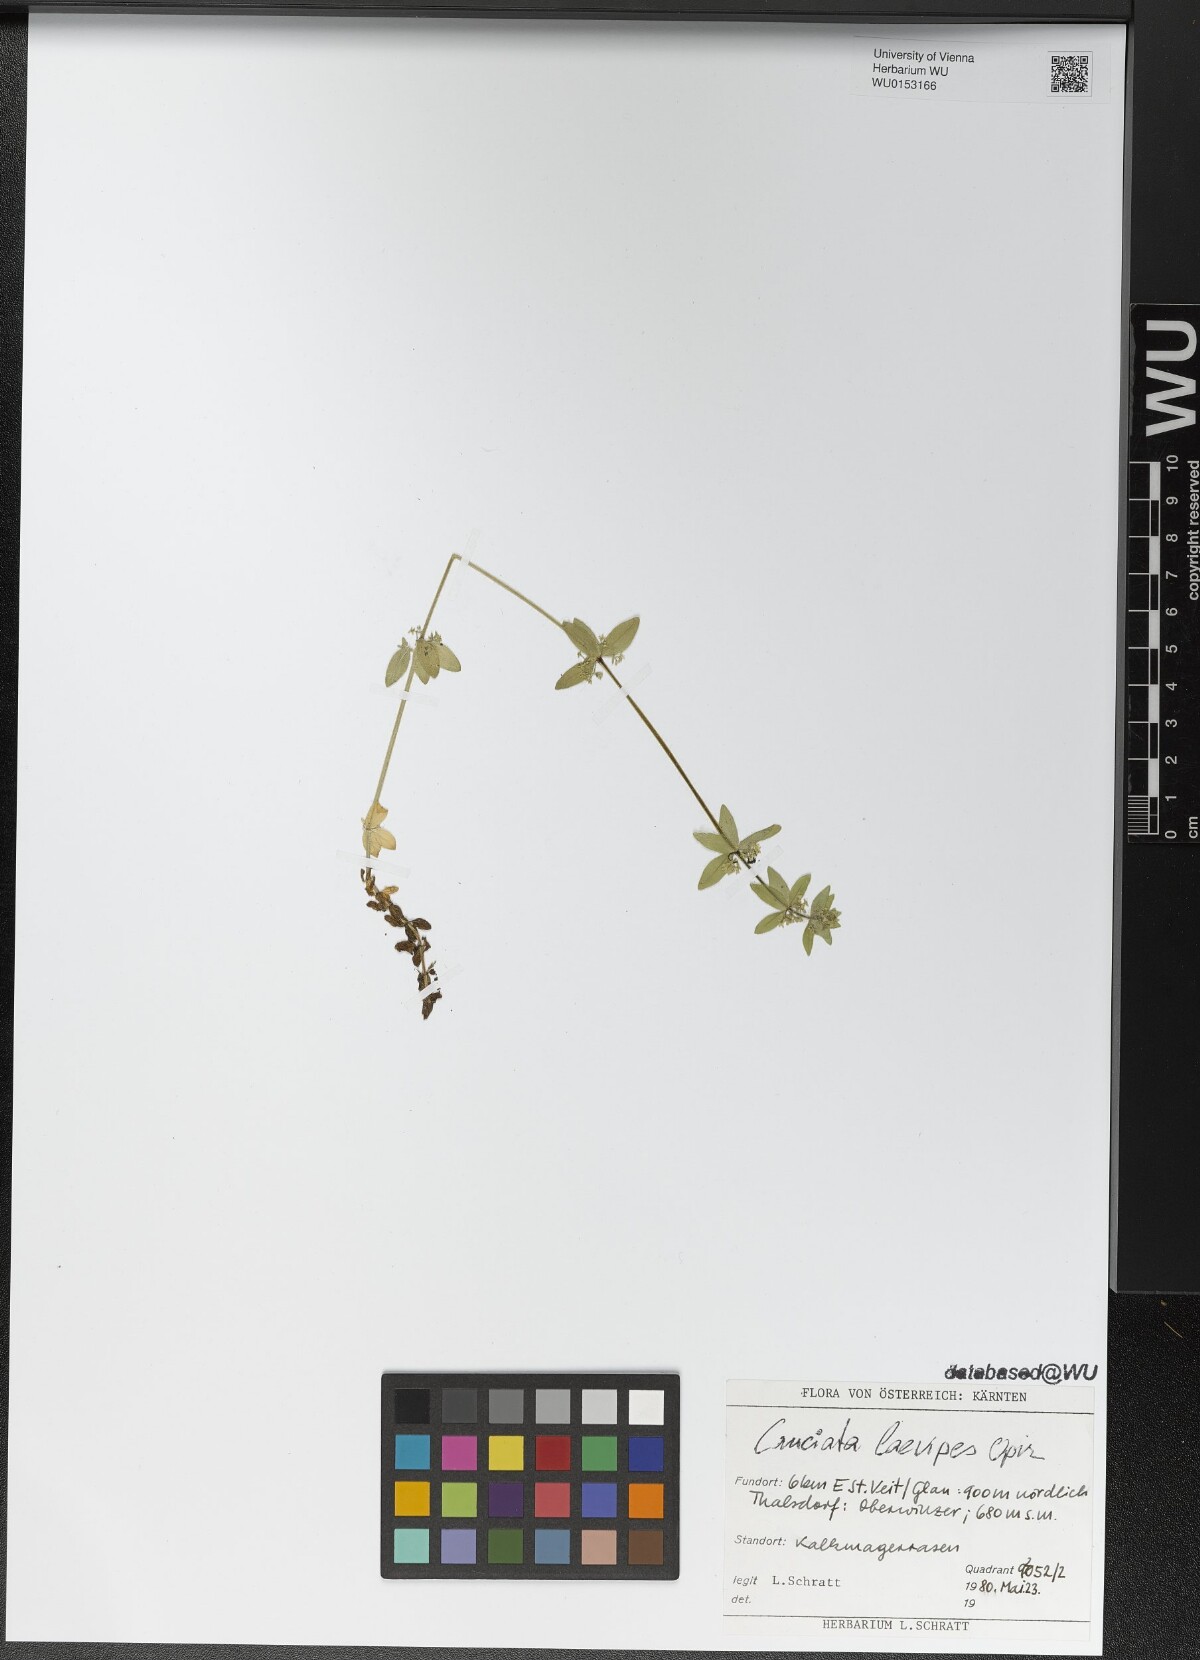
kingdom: Plantae
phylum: Tracheophyta
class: Magnoliopsida
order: Gentianales
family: Rubiaceae
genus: Cruciata
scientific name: Cruciata laevipes
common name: Crosswort
